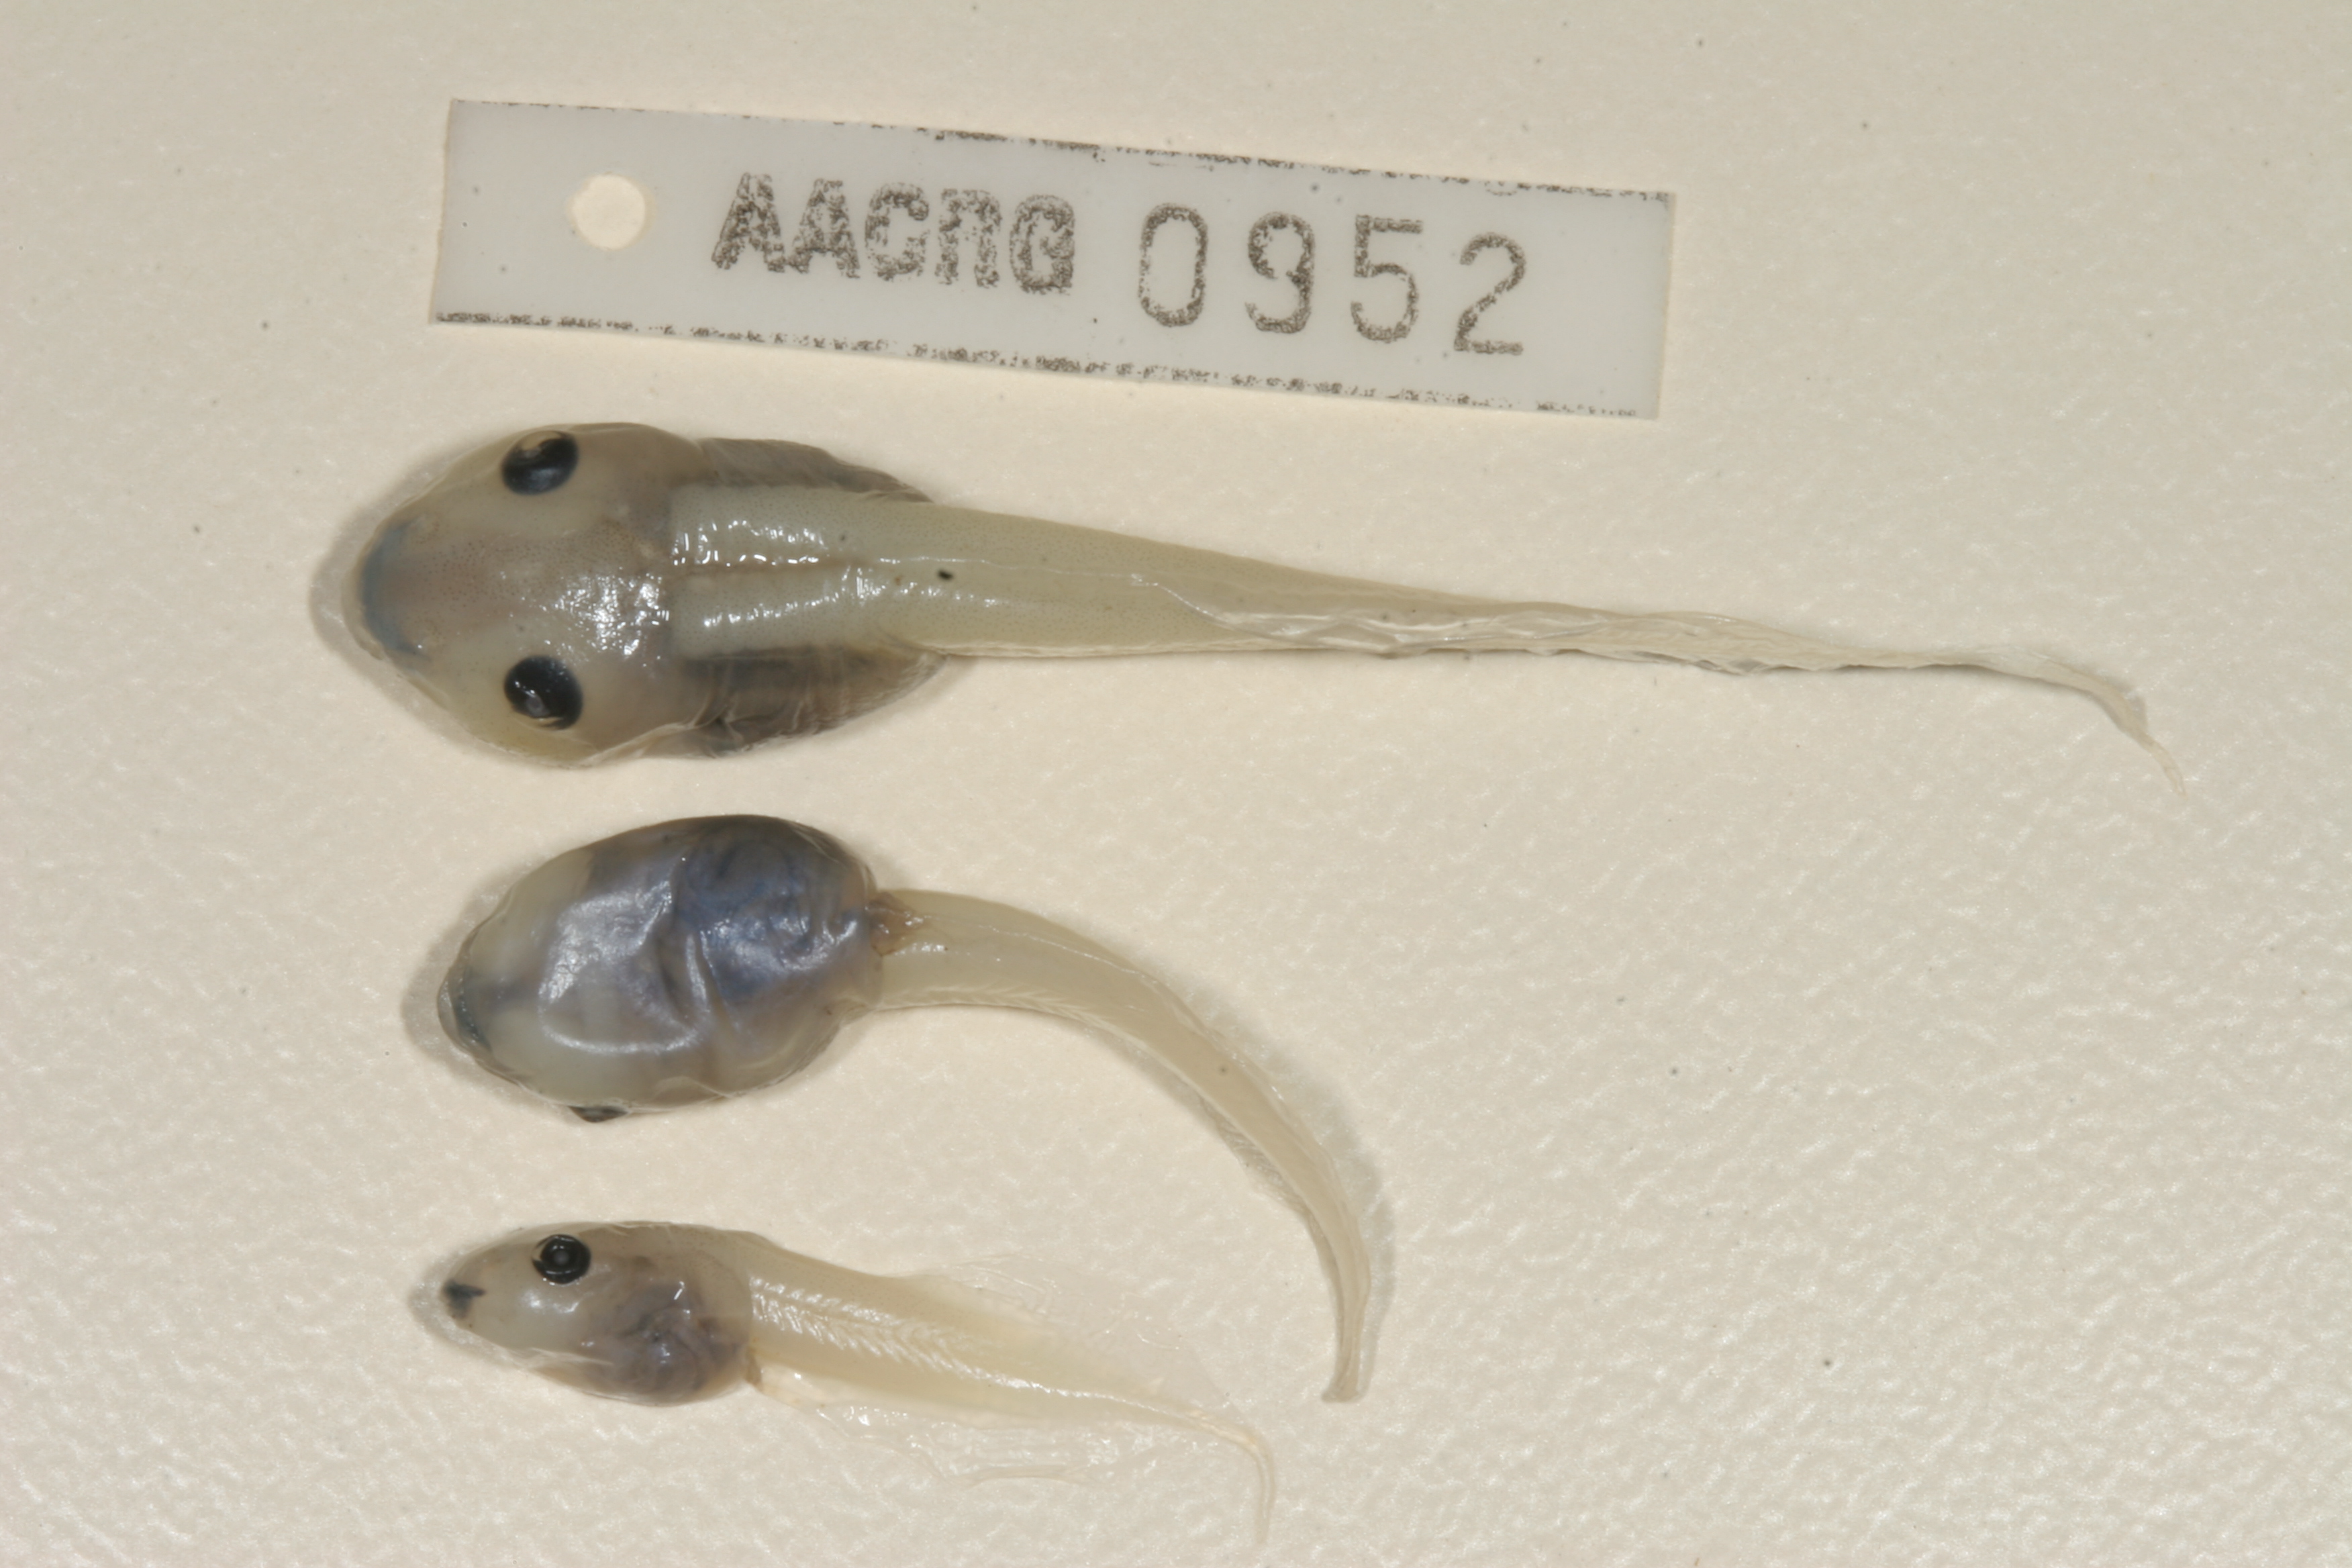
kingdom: Animalia
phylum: Chordata
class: Amphibia
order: Anura
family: Ptychadenidae
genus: Hildebrandtia
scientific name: Hildebrandtia ornata
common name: Ornate frog
